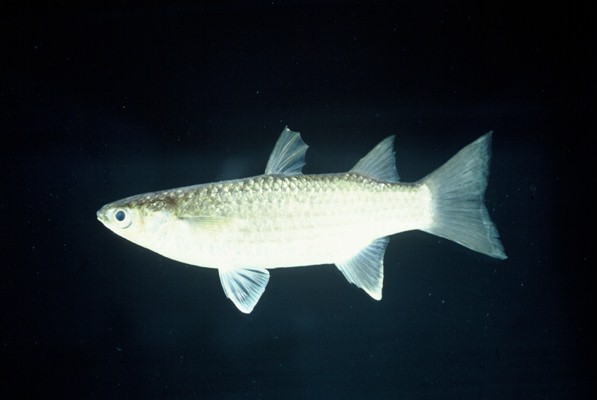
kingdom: Animalia
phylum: Chordata
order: Mugiliformes
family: Mugilidae
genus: Planiliza
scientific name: Planiliza melinopterus
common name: Otomebora mullet
